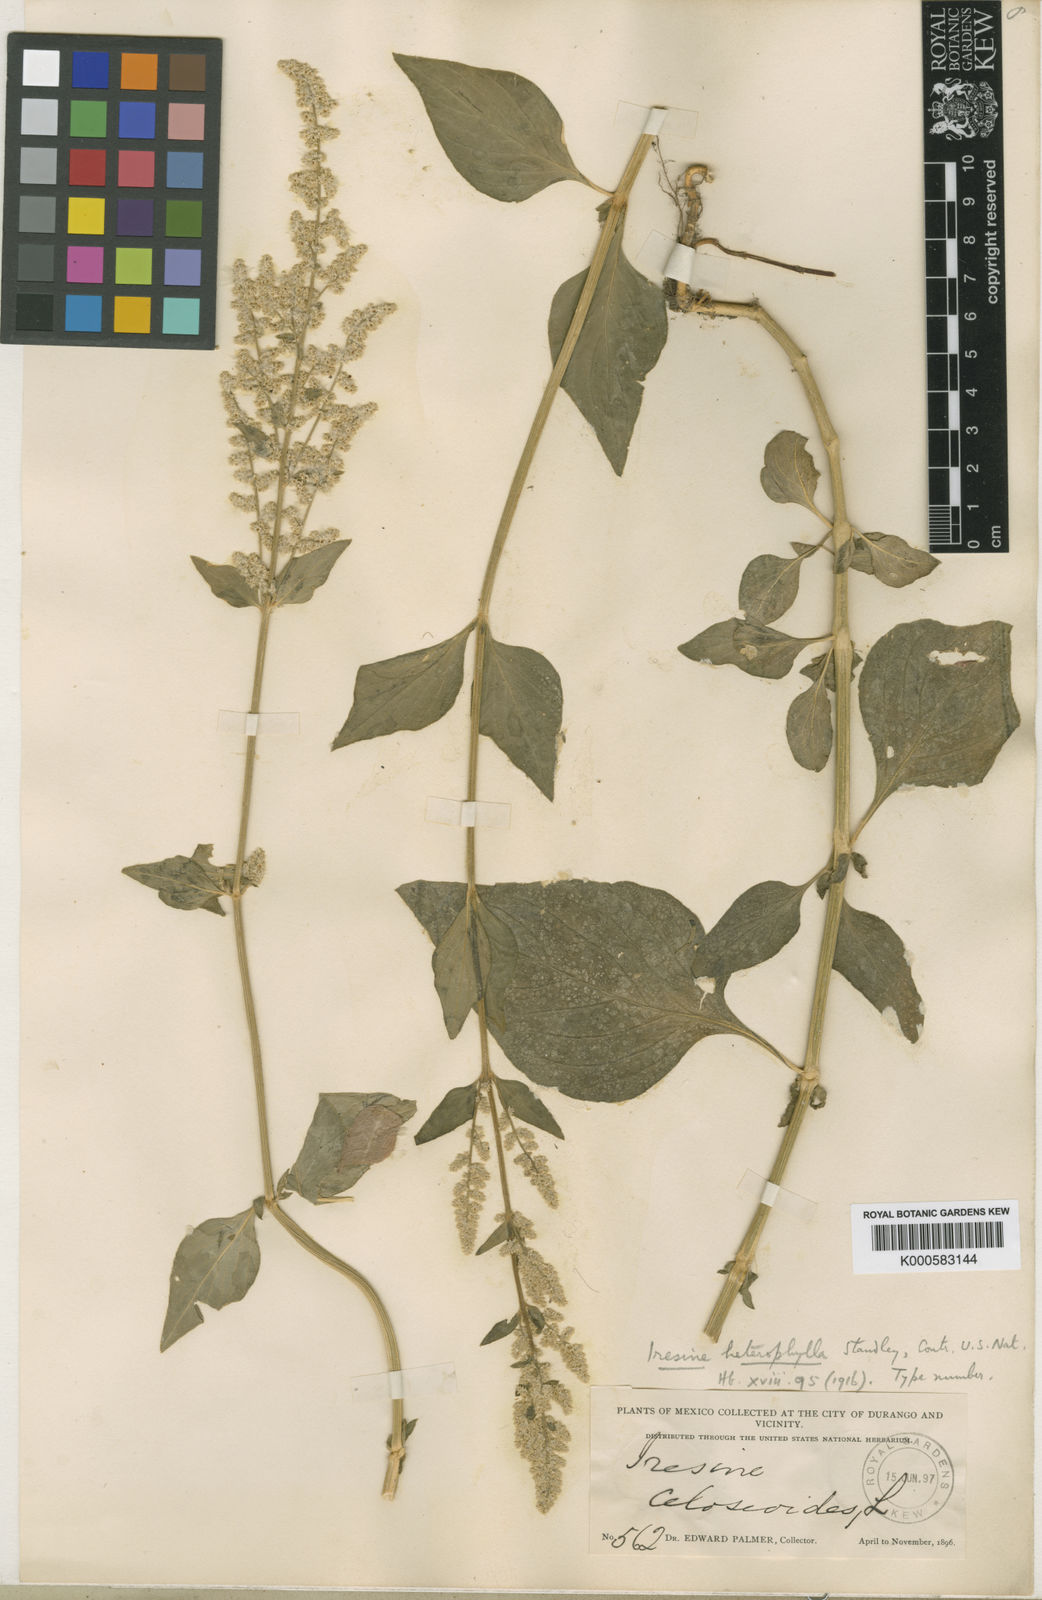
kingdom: Plantae
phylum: Tracheophyta
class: Magnoliopsida
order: Caryophyllales
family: Amaranthaceae
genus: Iresine
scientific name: Iresine heterophylla
